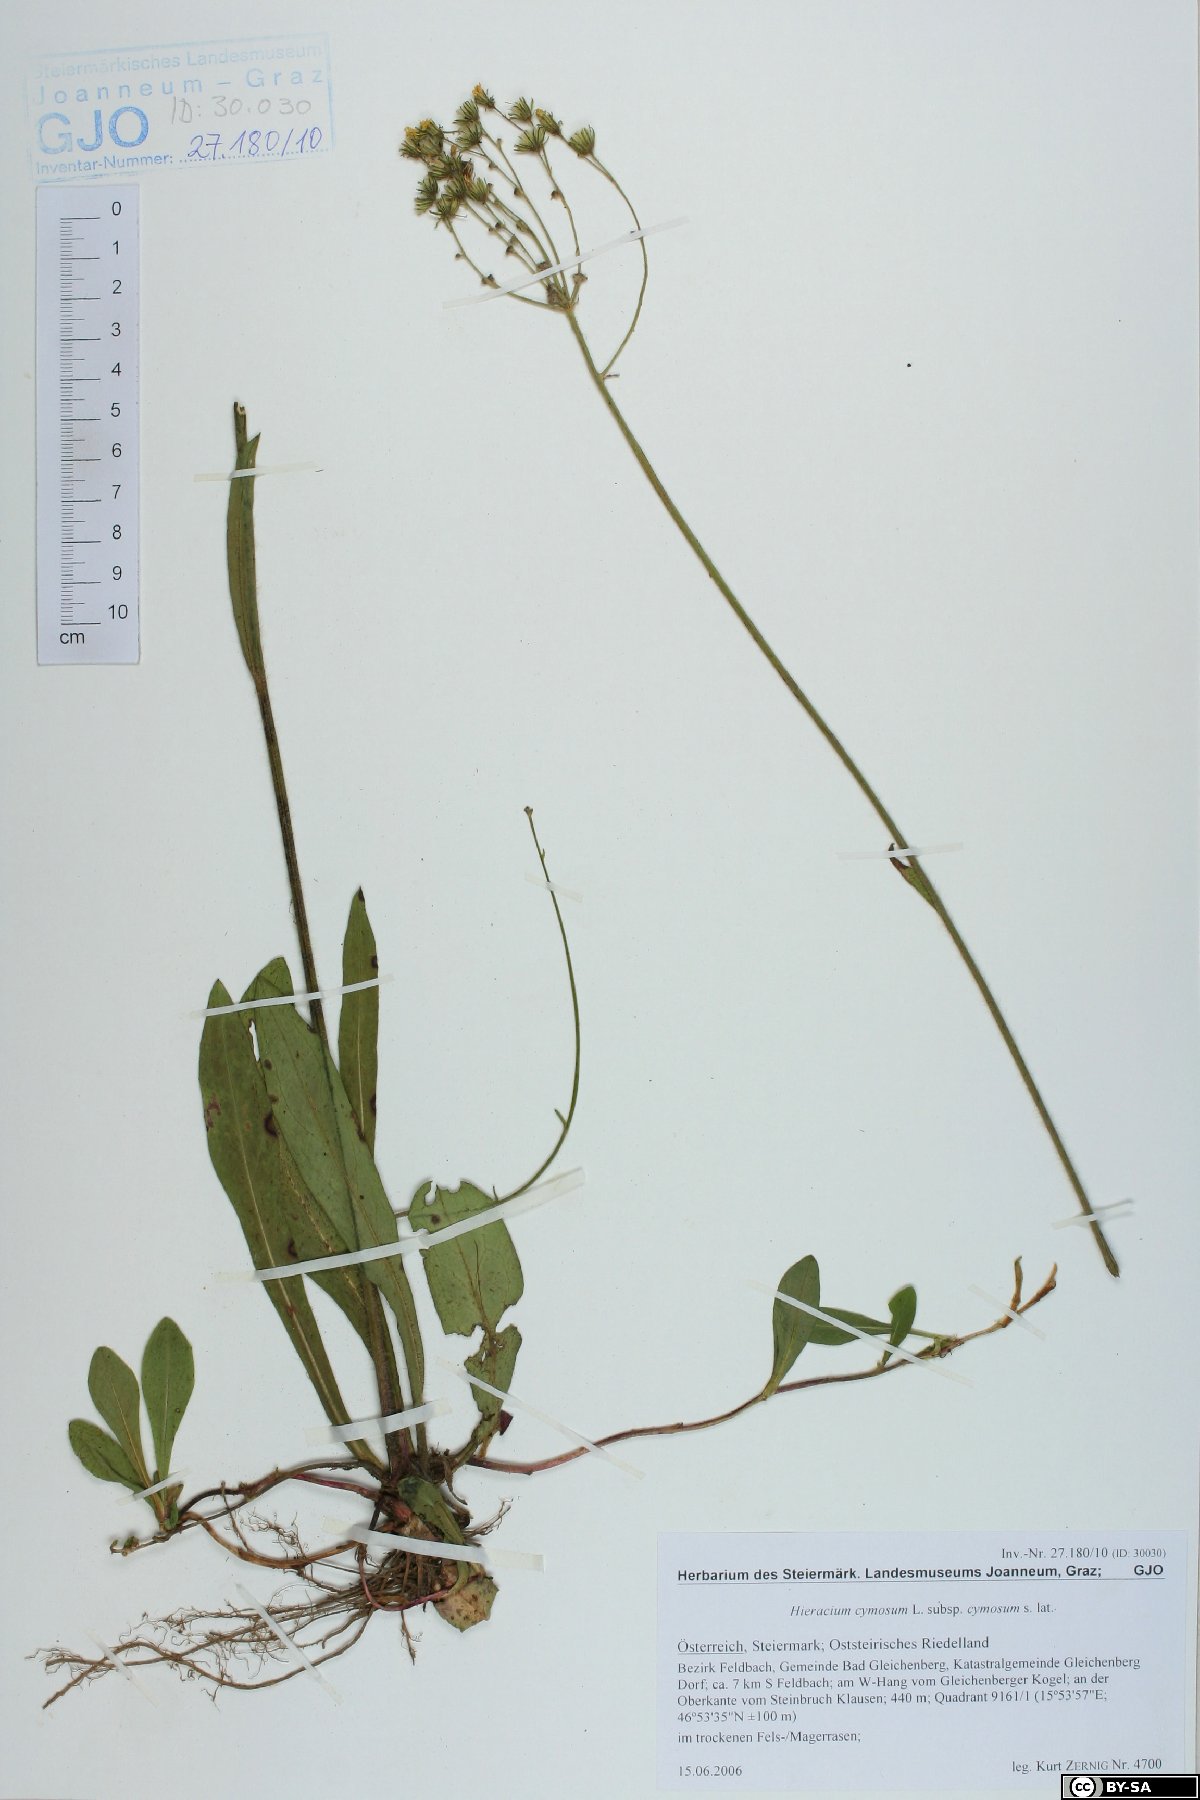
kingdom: Plantae
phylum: Tracheophyta
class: Magnoliopsida
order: Asterales
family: Asteraceae
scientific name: Asteraceae
